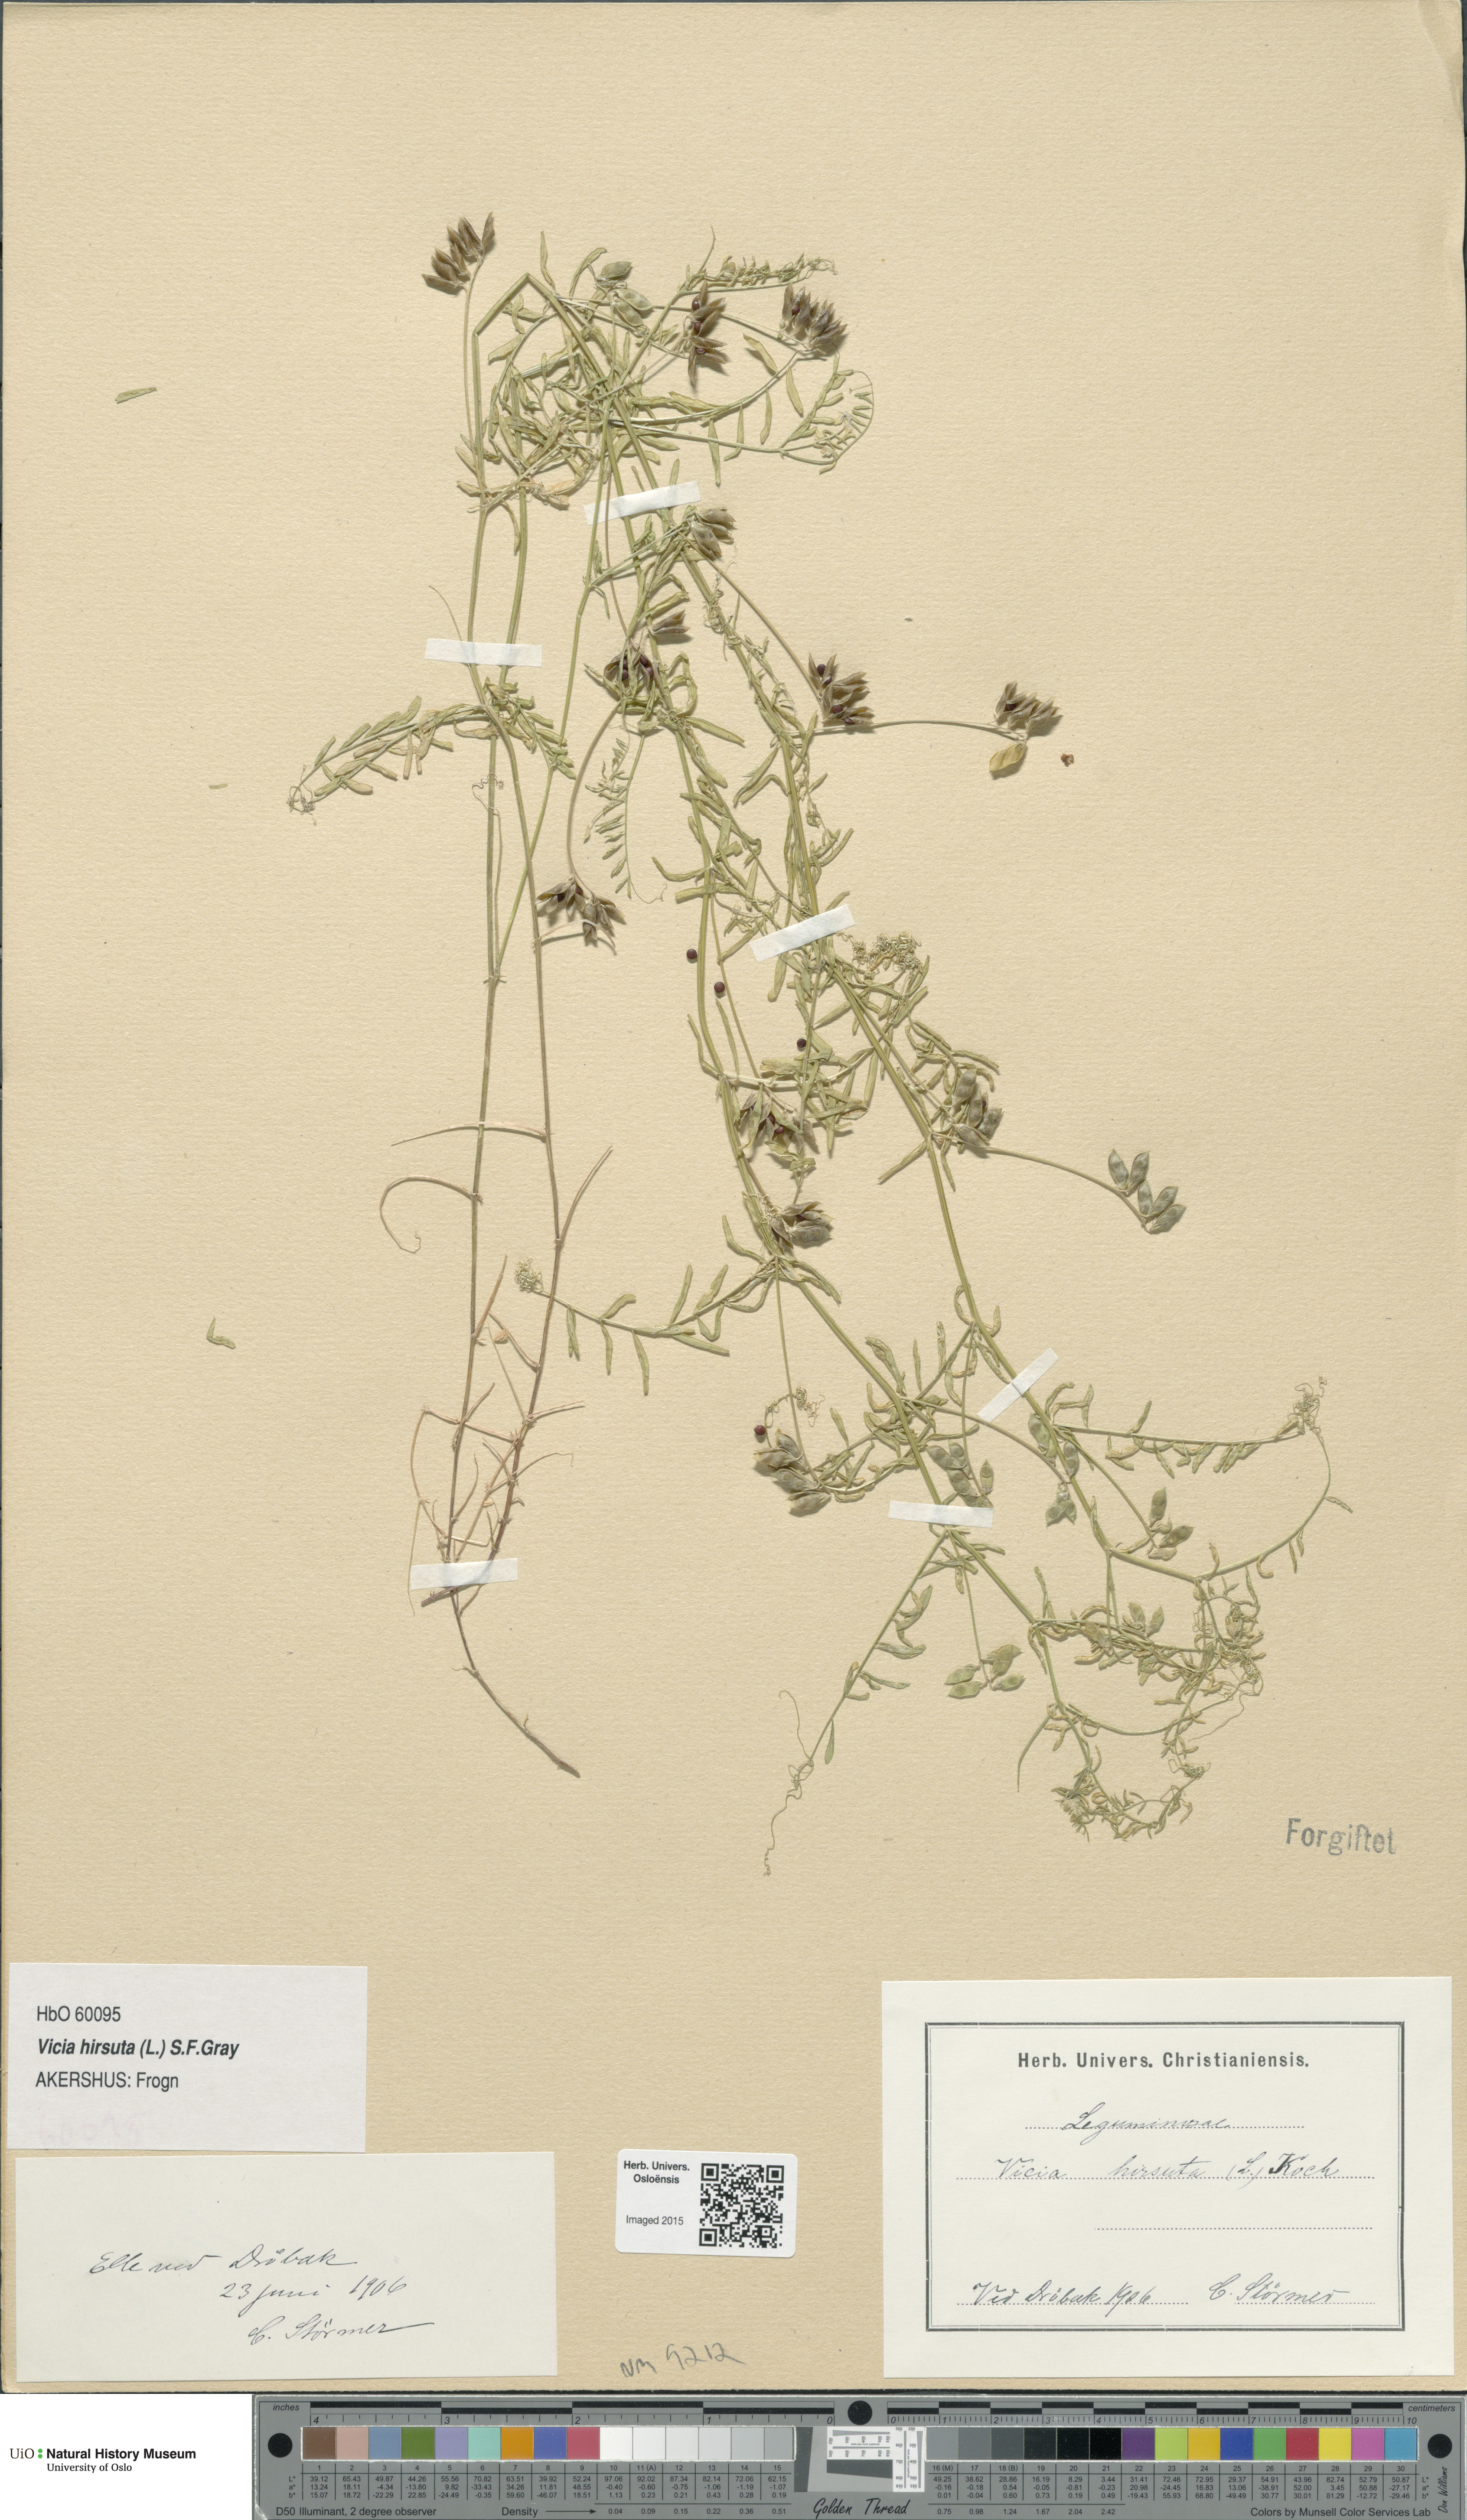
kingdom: Plantae
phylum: Tracheophyta
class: Magnoliopsida
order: Fabales
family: Fabaceae
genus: Vicia
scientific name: Vicia hirsuta
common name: Tiny vetch
